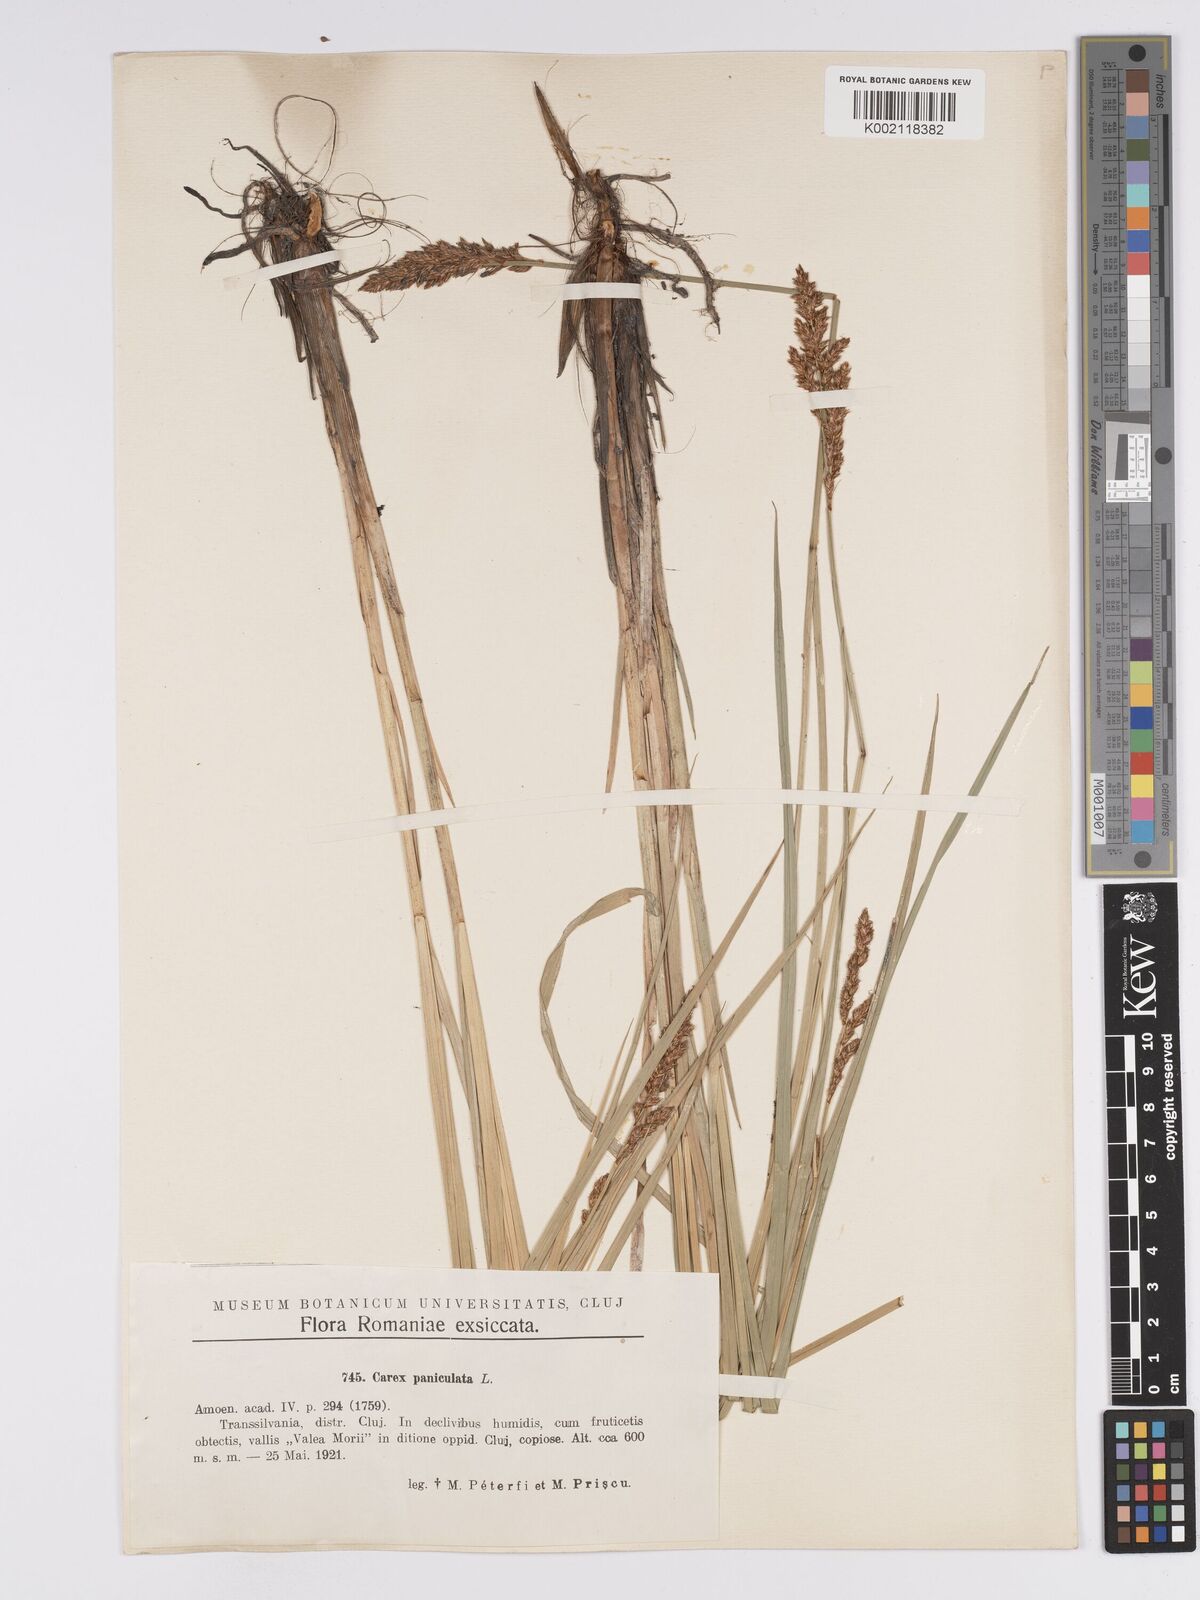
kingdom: Plantae
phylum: Tracheophyta
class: Liliopsida
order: Poales
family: Cyperaceae
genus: Carex
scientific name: Carex paniculata
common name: Greater tussock-sedge
